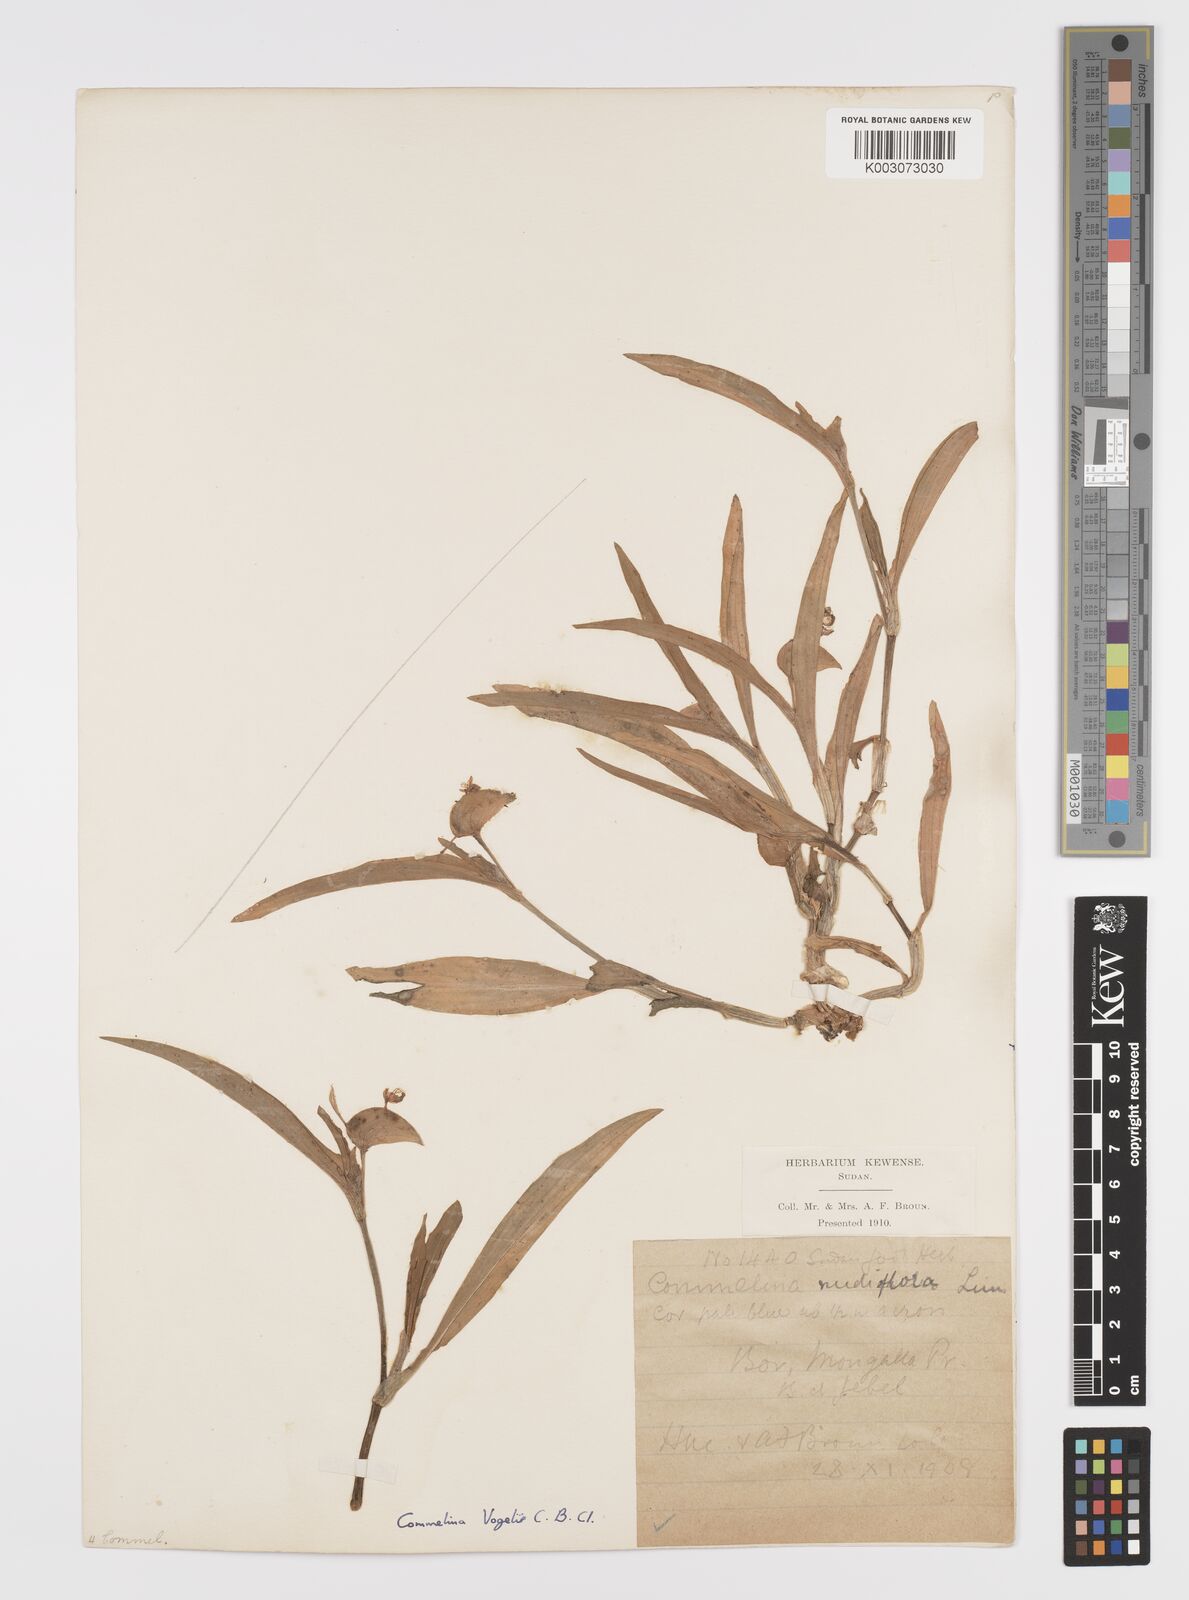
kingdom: Plantae
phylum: Tracheophyta
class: Liliopsida
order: Commelinales
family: Commelinaceae
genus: Commelina
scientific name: Commelina bracteosa
